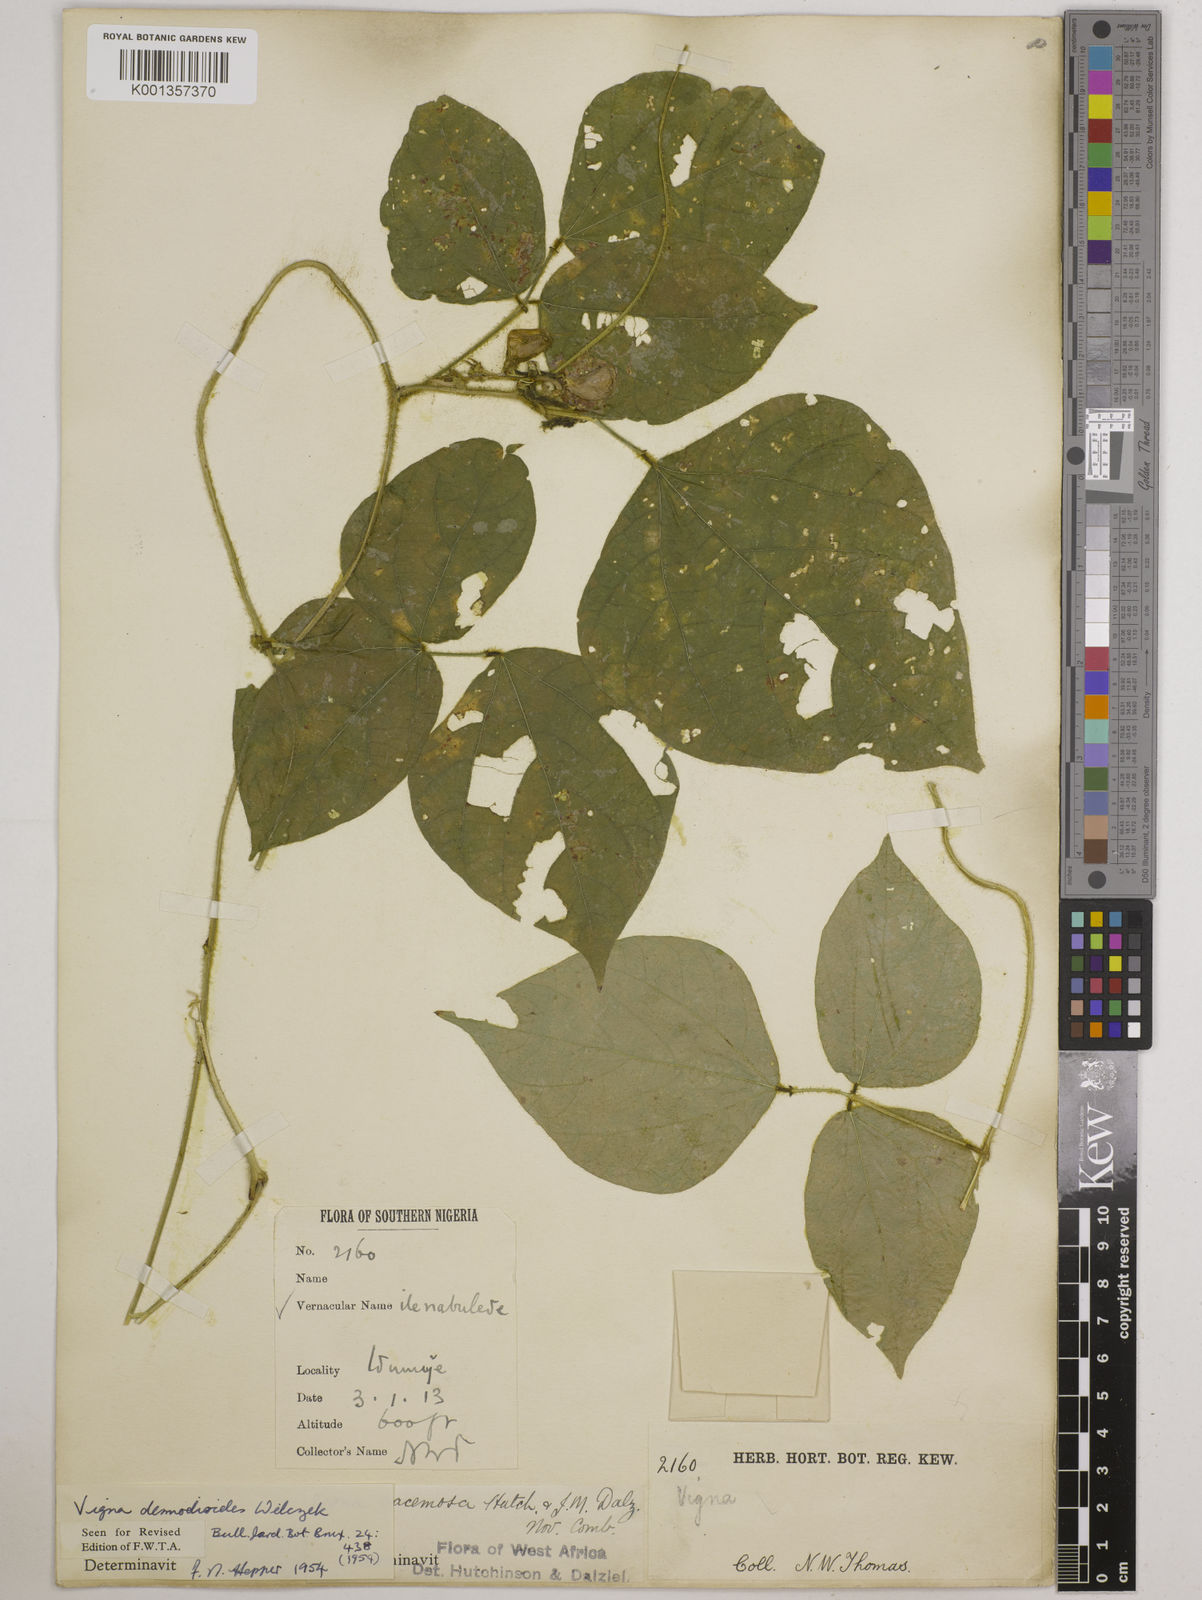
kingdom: Plantae
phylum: Tracheophyta
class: Magnoliopsida
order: Fabales
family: Fabaceae
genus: Vigna
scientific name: Vigna gracilis
